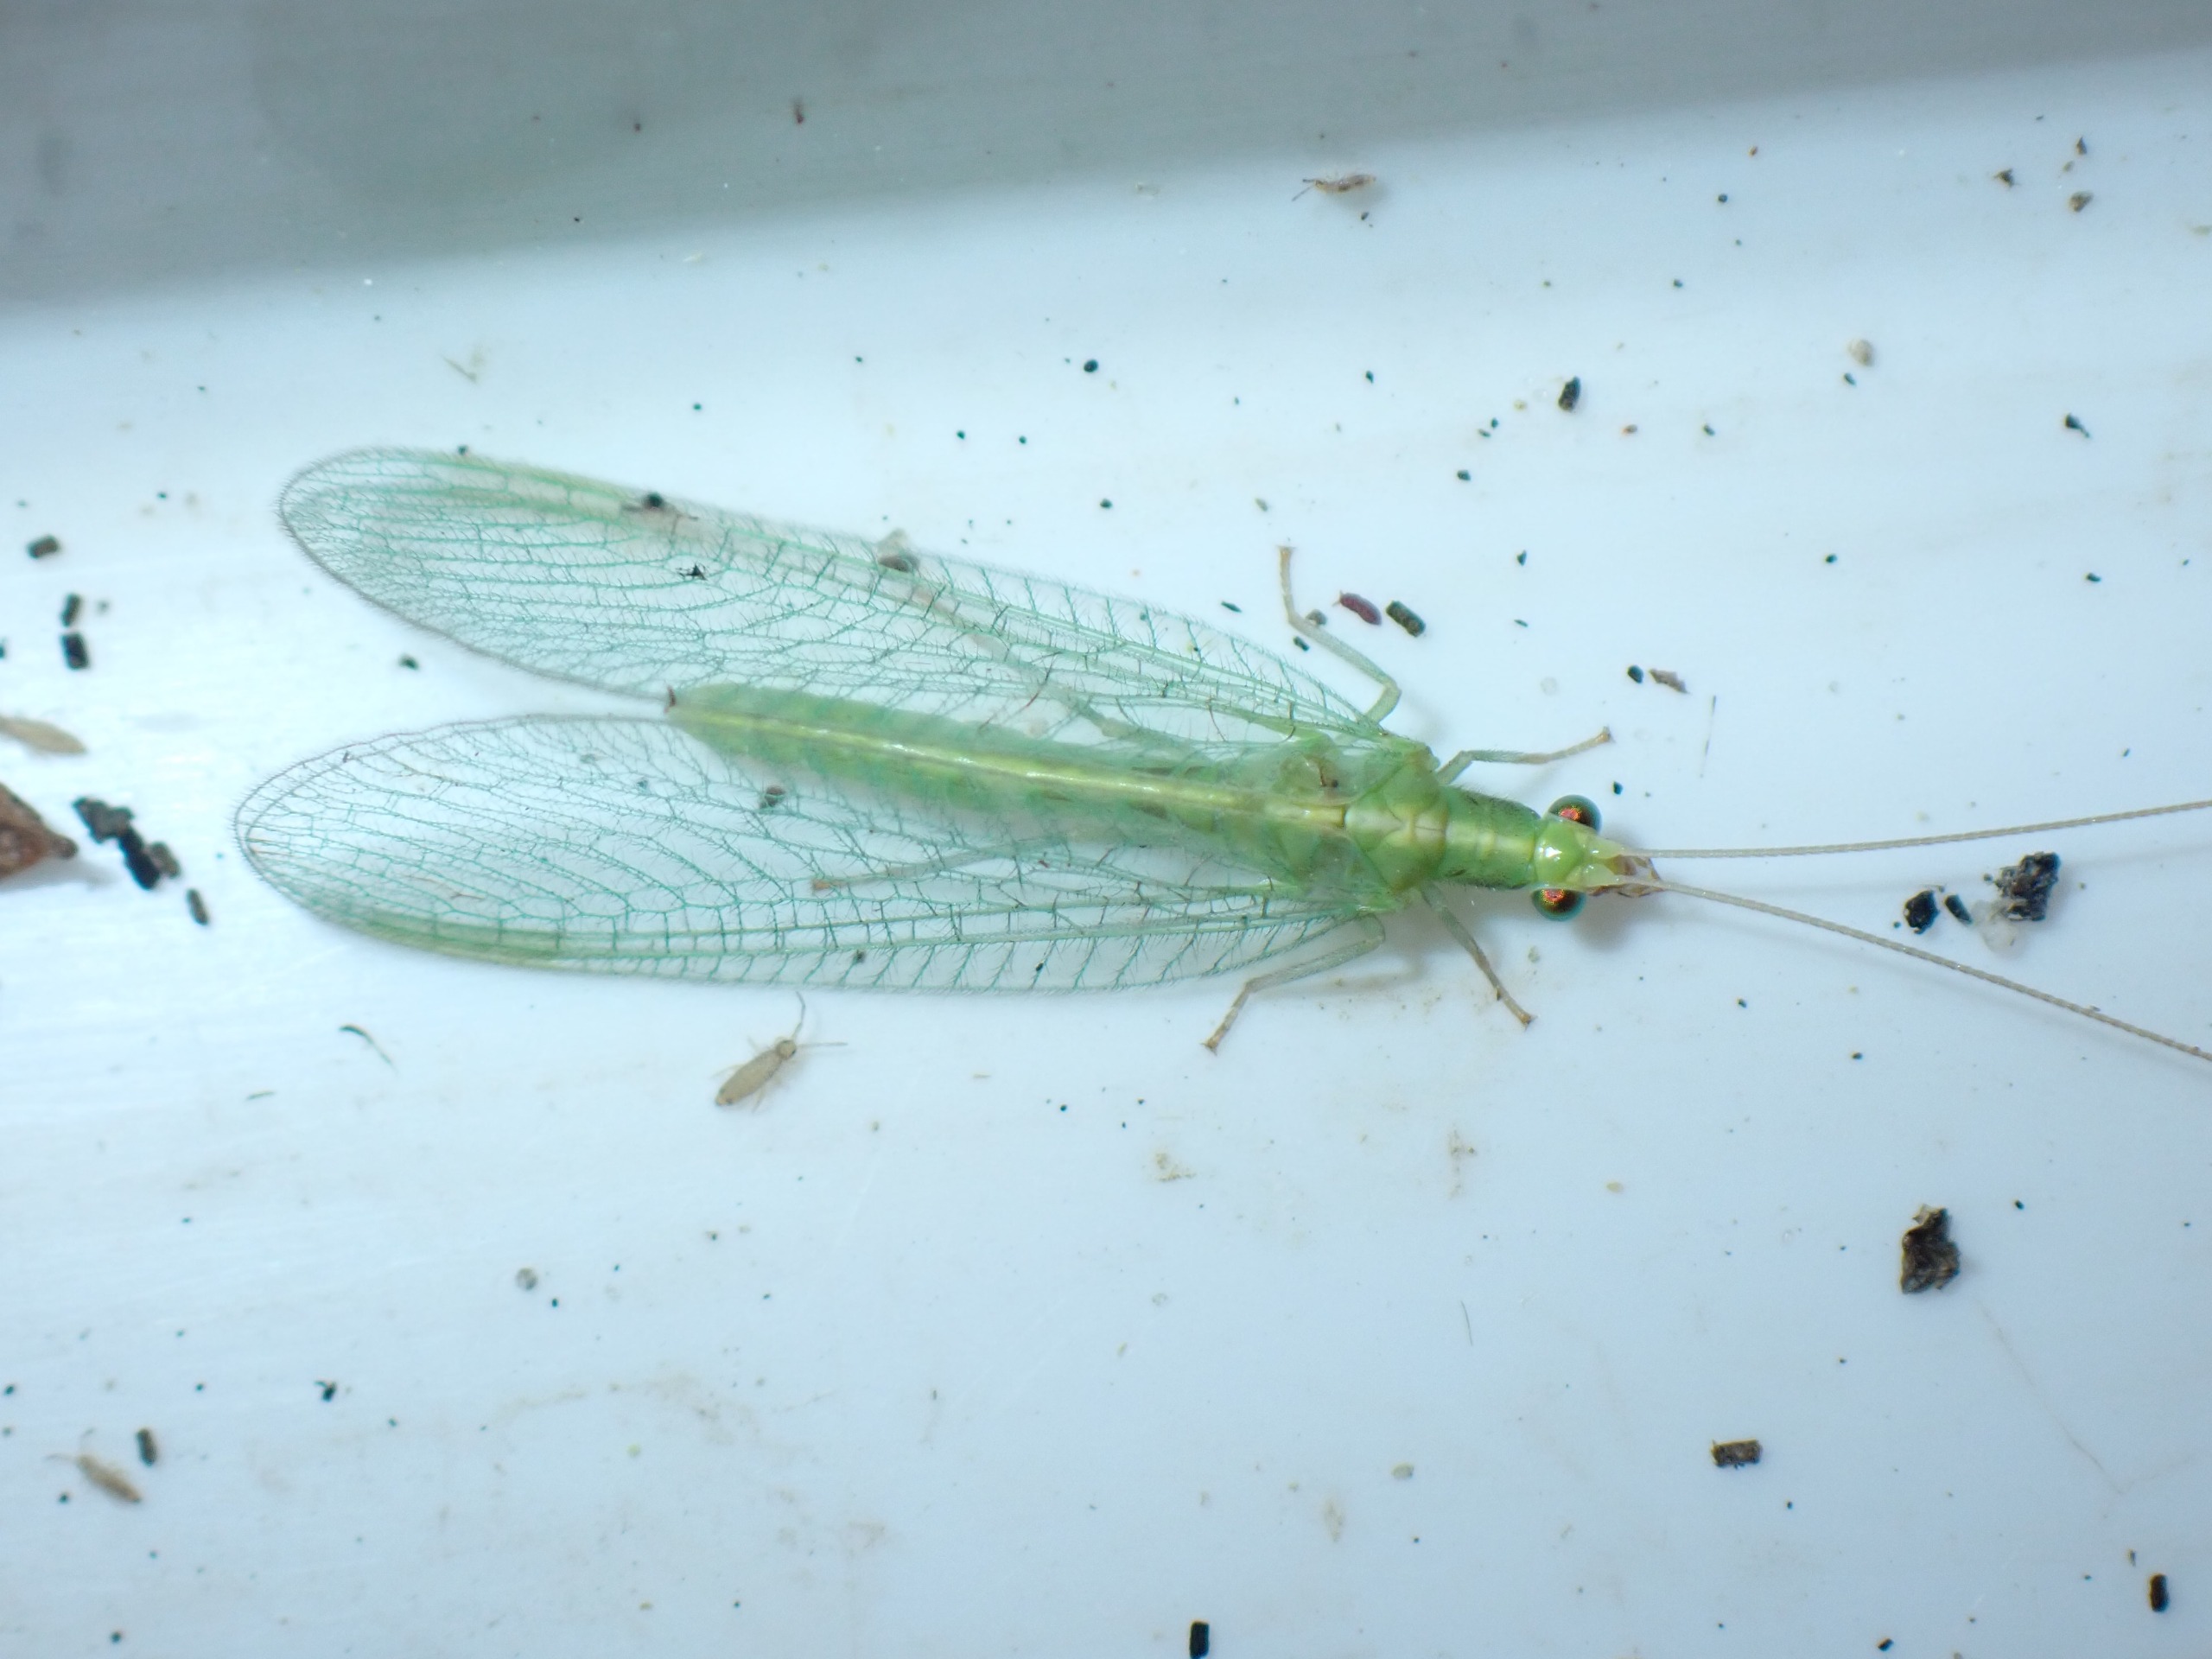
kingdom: Animalia
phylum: Arthropoda
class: Insecta
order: Neuroptera
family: Chrysopidae
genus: Chrysoperla
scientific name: Chrysoperla carnea
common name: Almindelig guldøje
